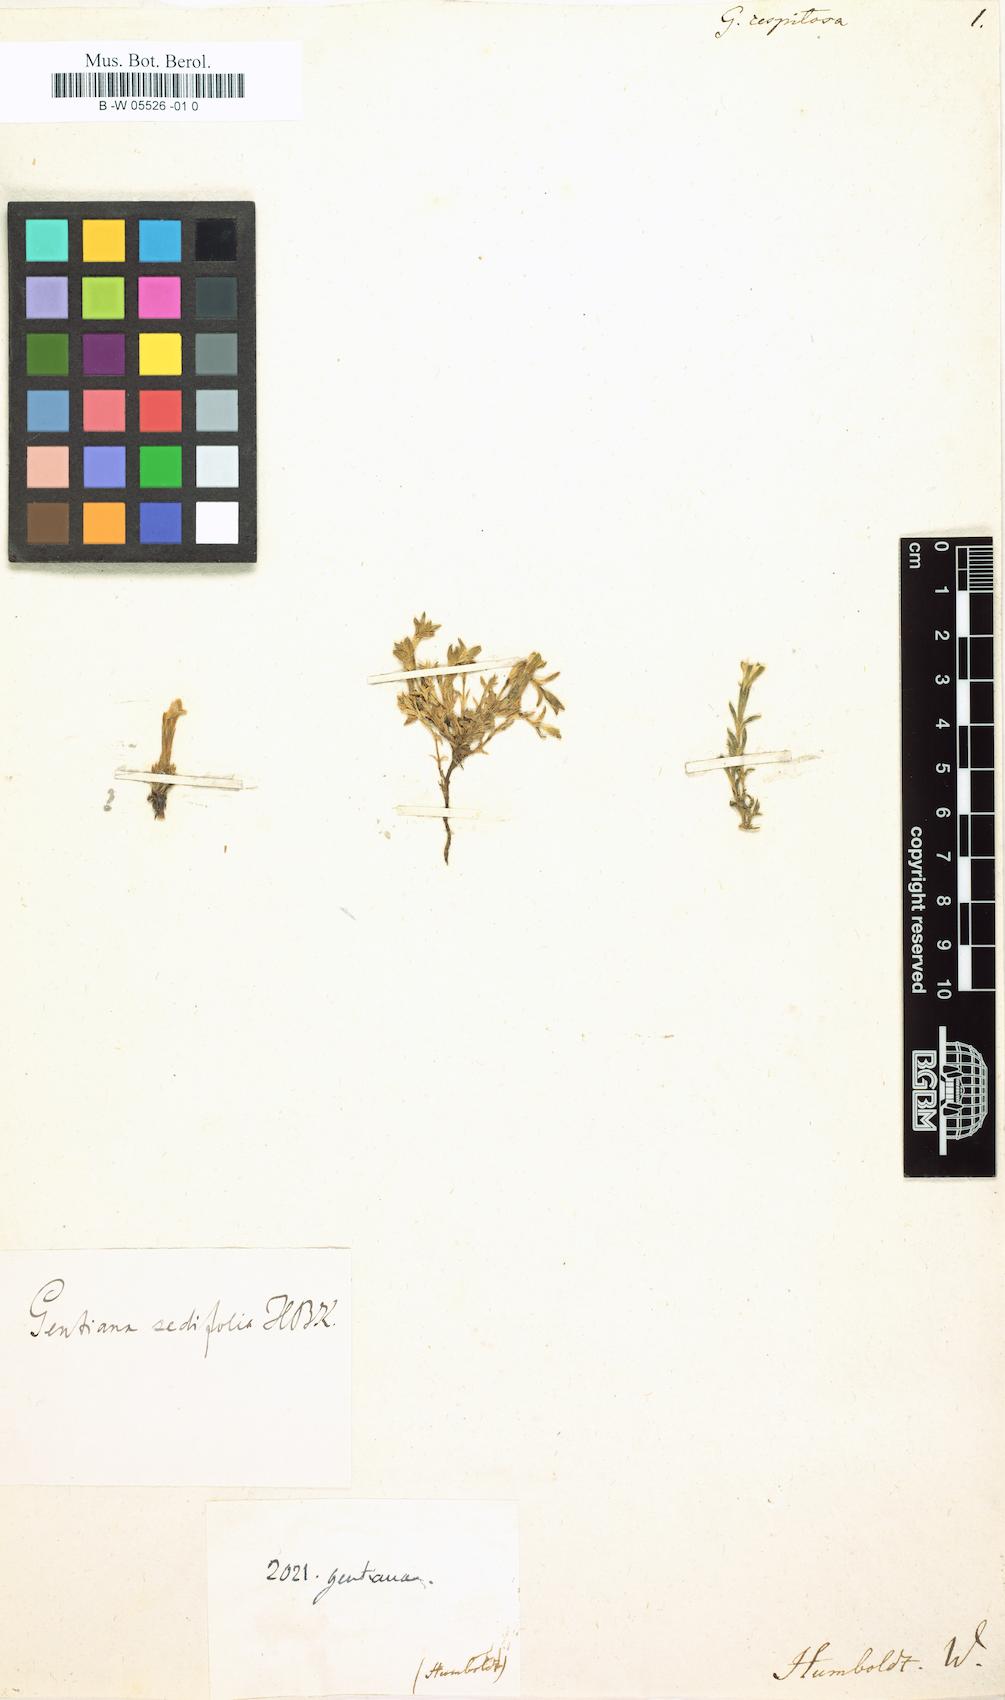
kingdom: Plantae
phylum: Tracheophyta
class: Magnoliopsida
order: Gentianales
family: Gentianaceae
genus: Gentiana
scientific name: Gentiana sedifolia
